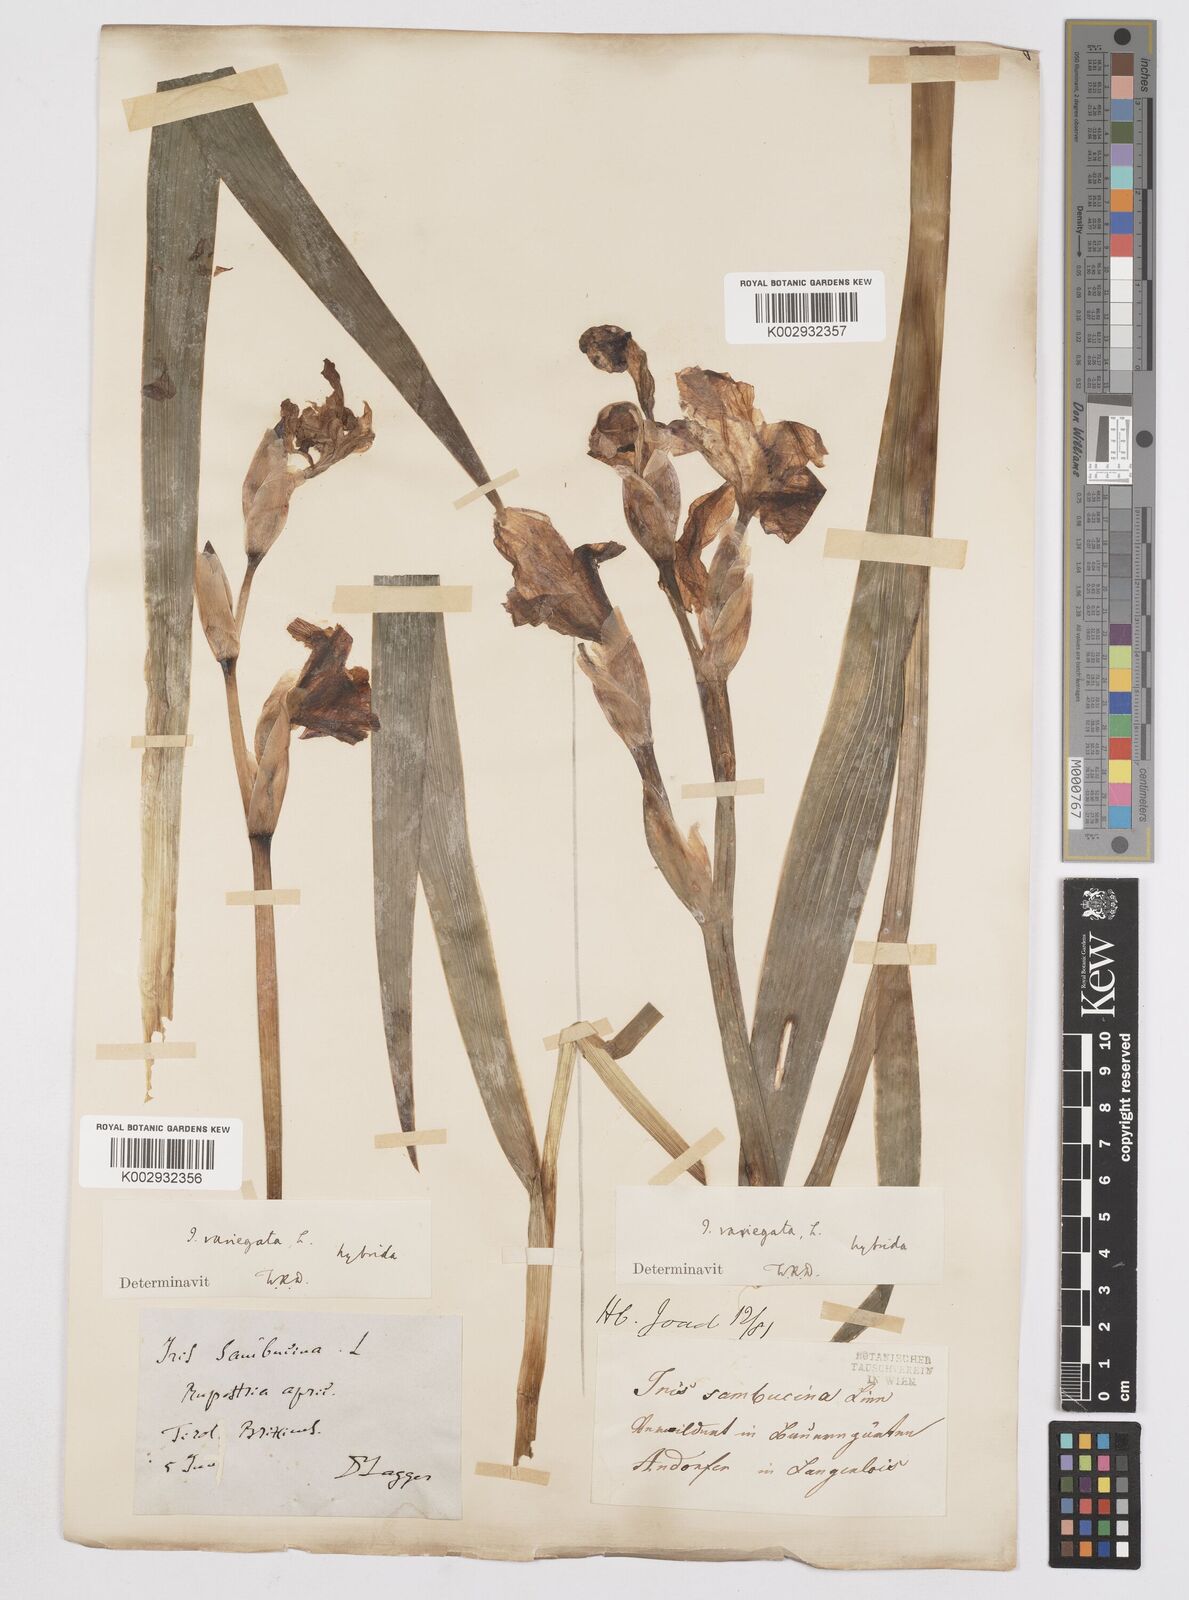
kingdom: Plantae
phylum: Tracheophyta
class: Liliopsida
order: Asparagales
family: Iridaceae
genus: Iris
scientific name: Iris germanica
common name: German iris
